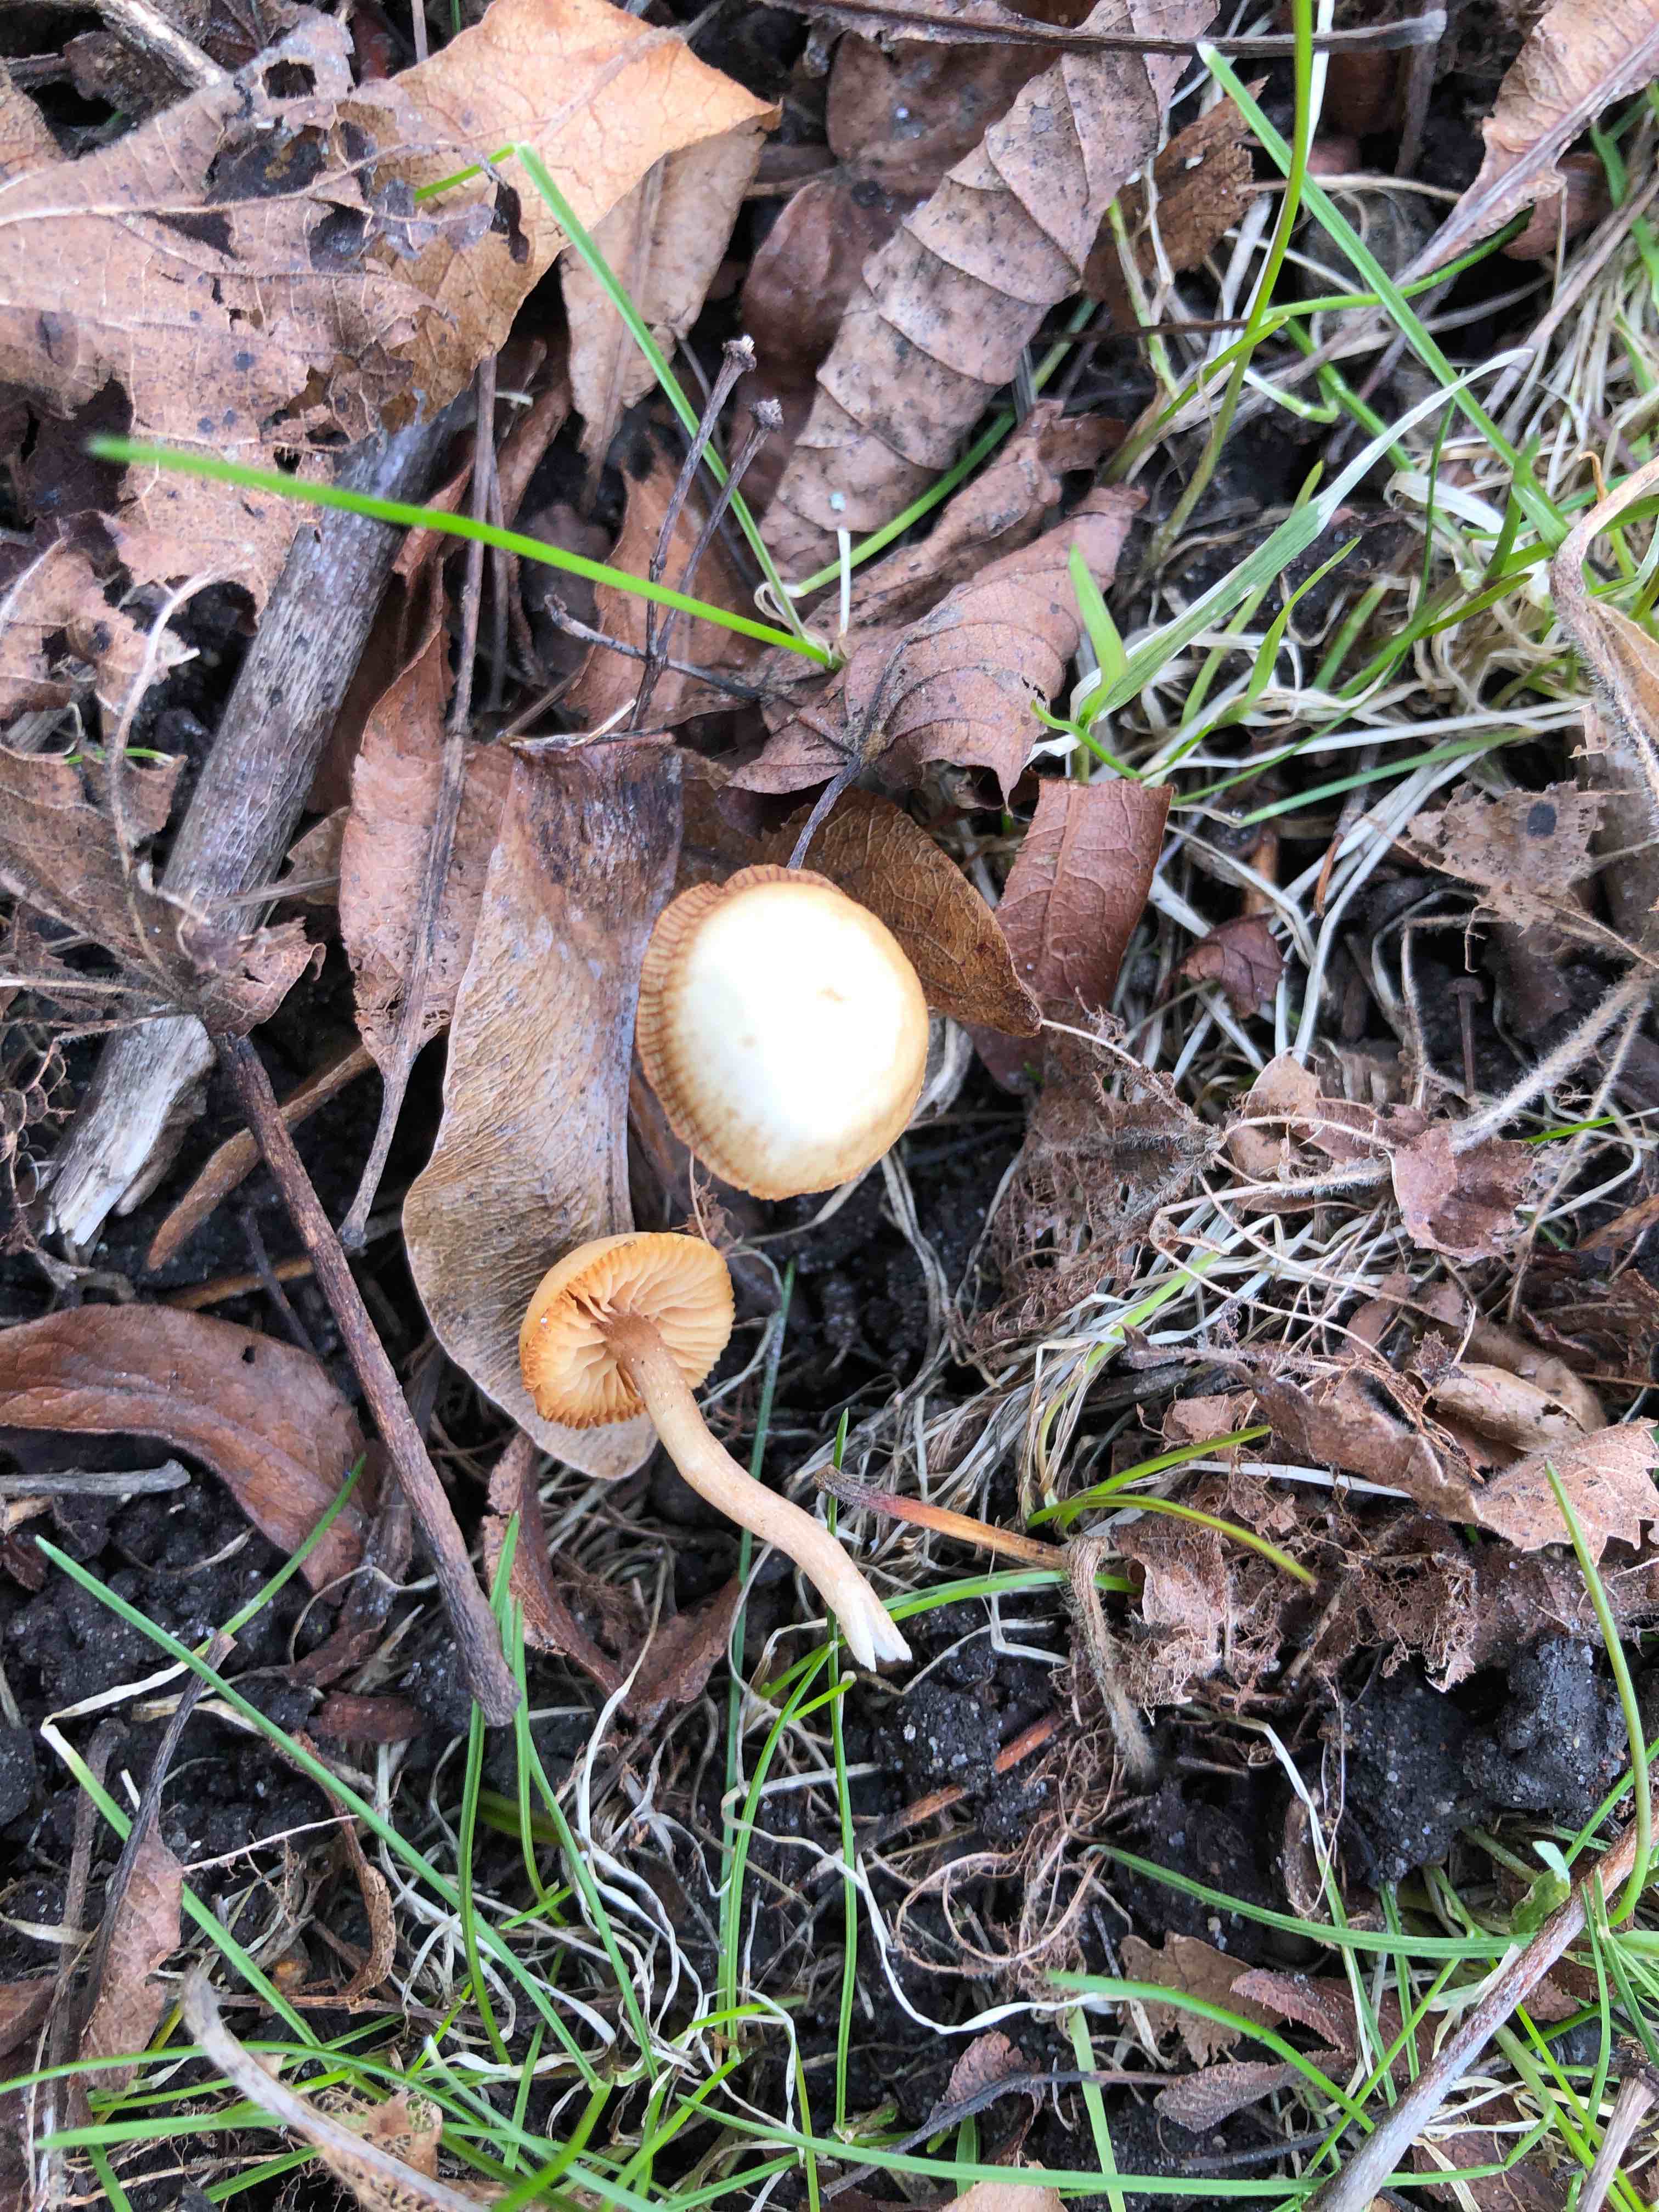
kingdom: Fungi
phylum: Basidiomycota
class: Agaricomycetes
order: Agaricales
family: Tubariaceae
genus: Tubaria
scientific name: Tubaria furfuracea
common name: kliddet fnughat
